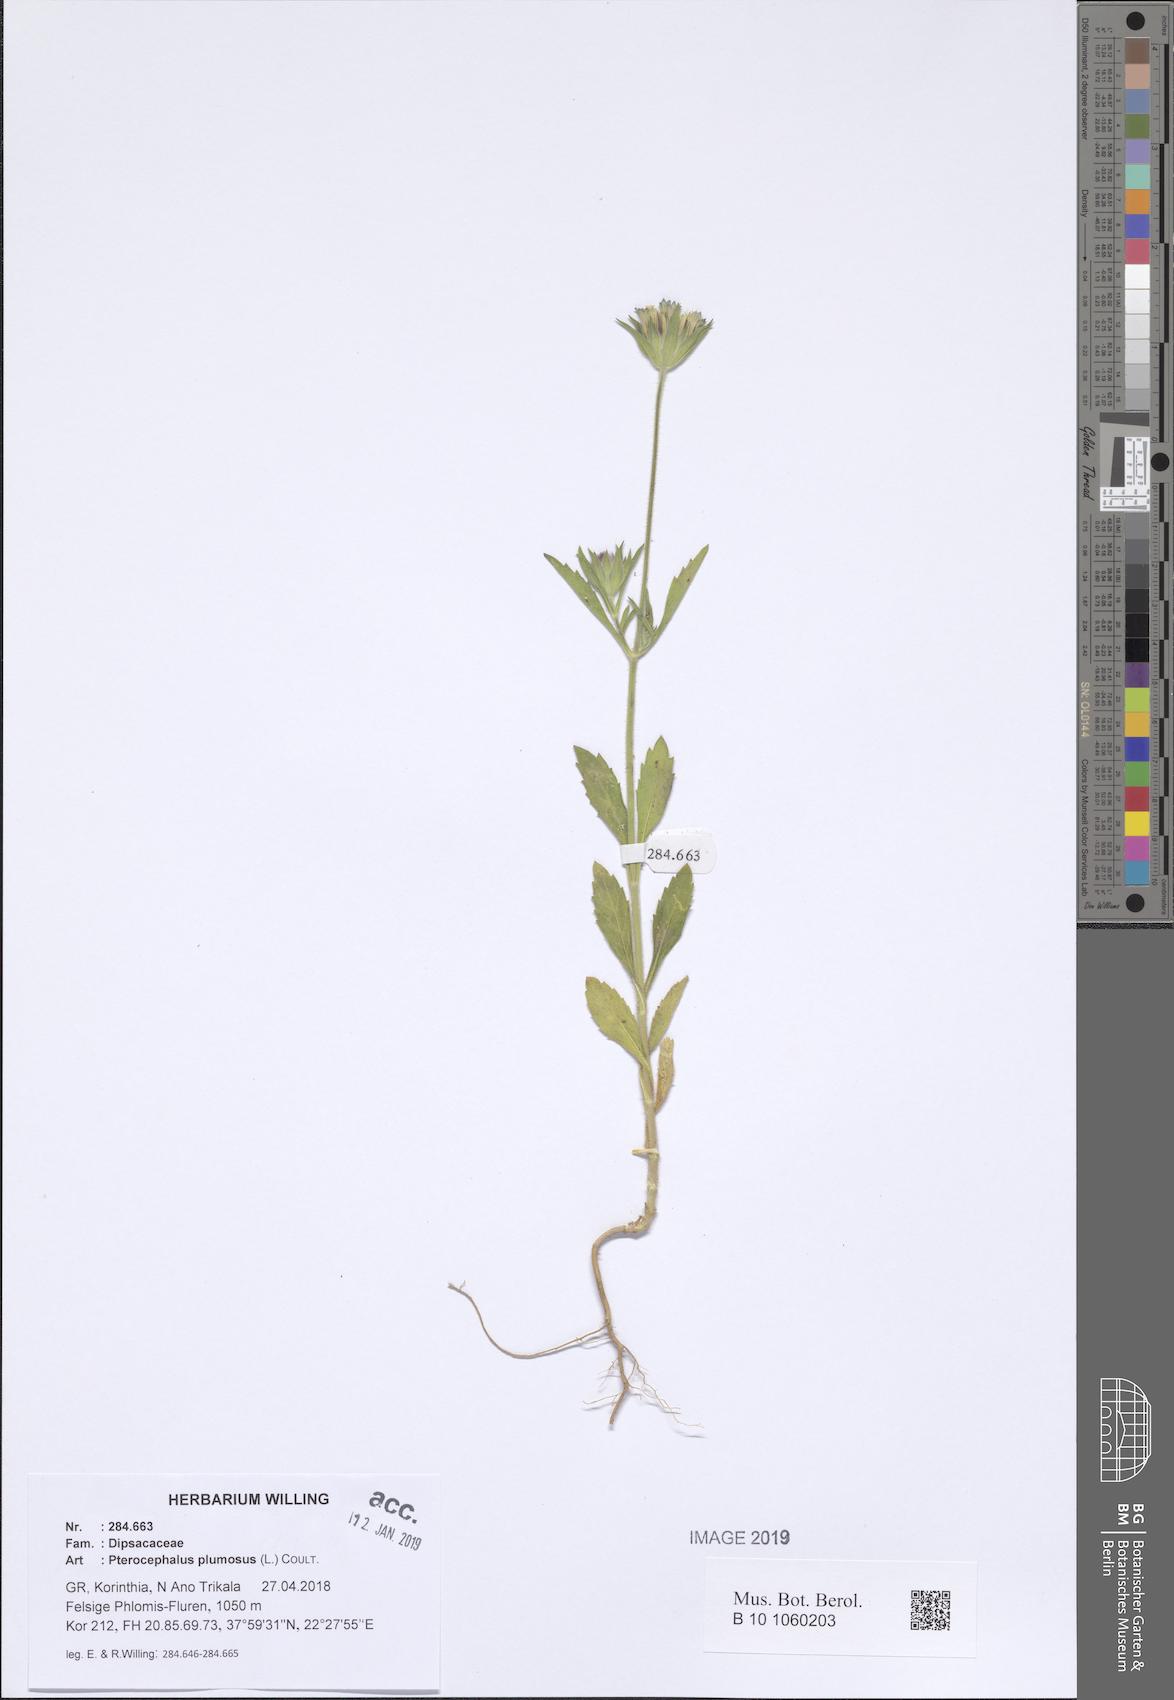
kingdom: Plantae
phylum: Tracheophyta
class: Magnoliopsida
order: Dipsacales
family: Caprifoliaceae
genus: Pterocephalus
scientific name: Pterocephalus plumosus
